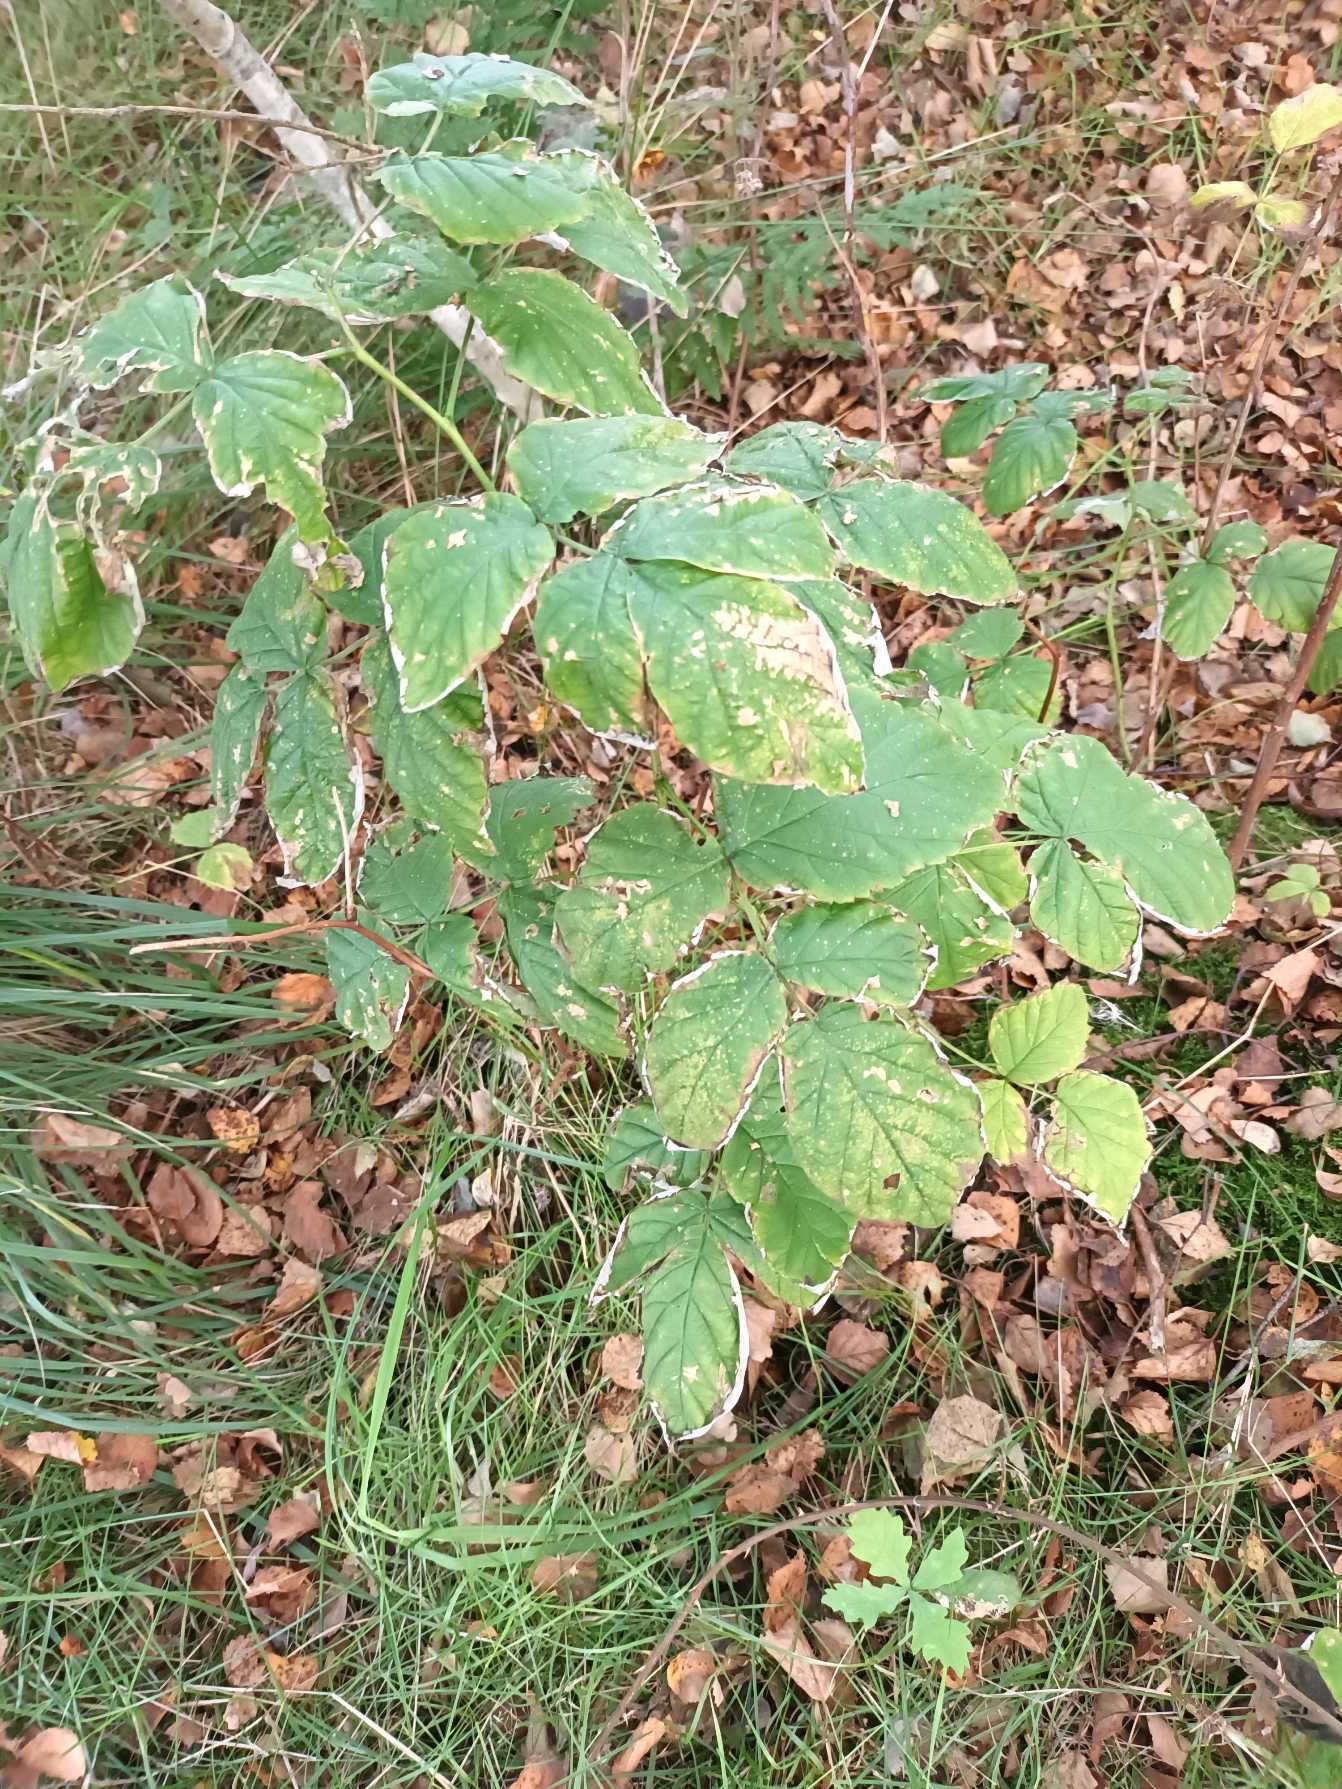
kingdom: Plantae
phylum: Tracheophyta
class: Magnoliopsida
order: Rosales
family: Rosaceae
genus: Rubus
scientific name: Rubus idaeus
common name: Hindbær
